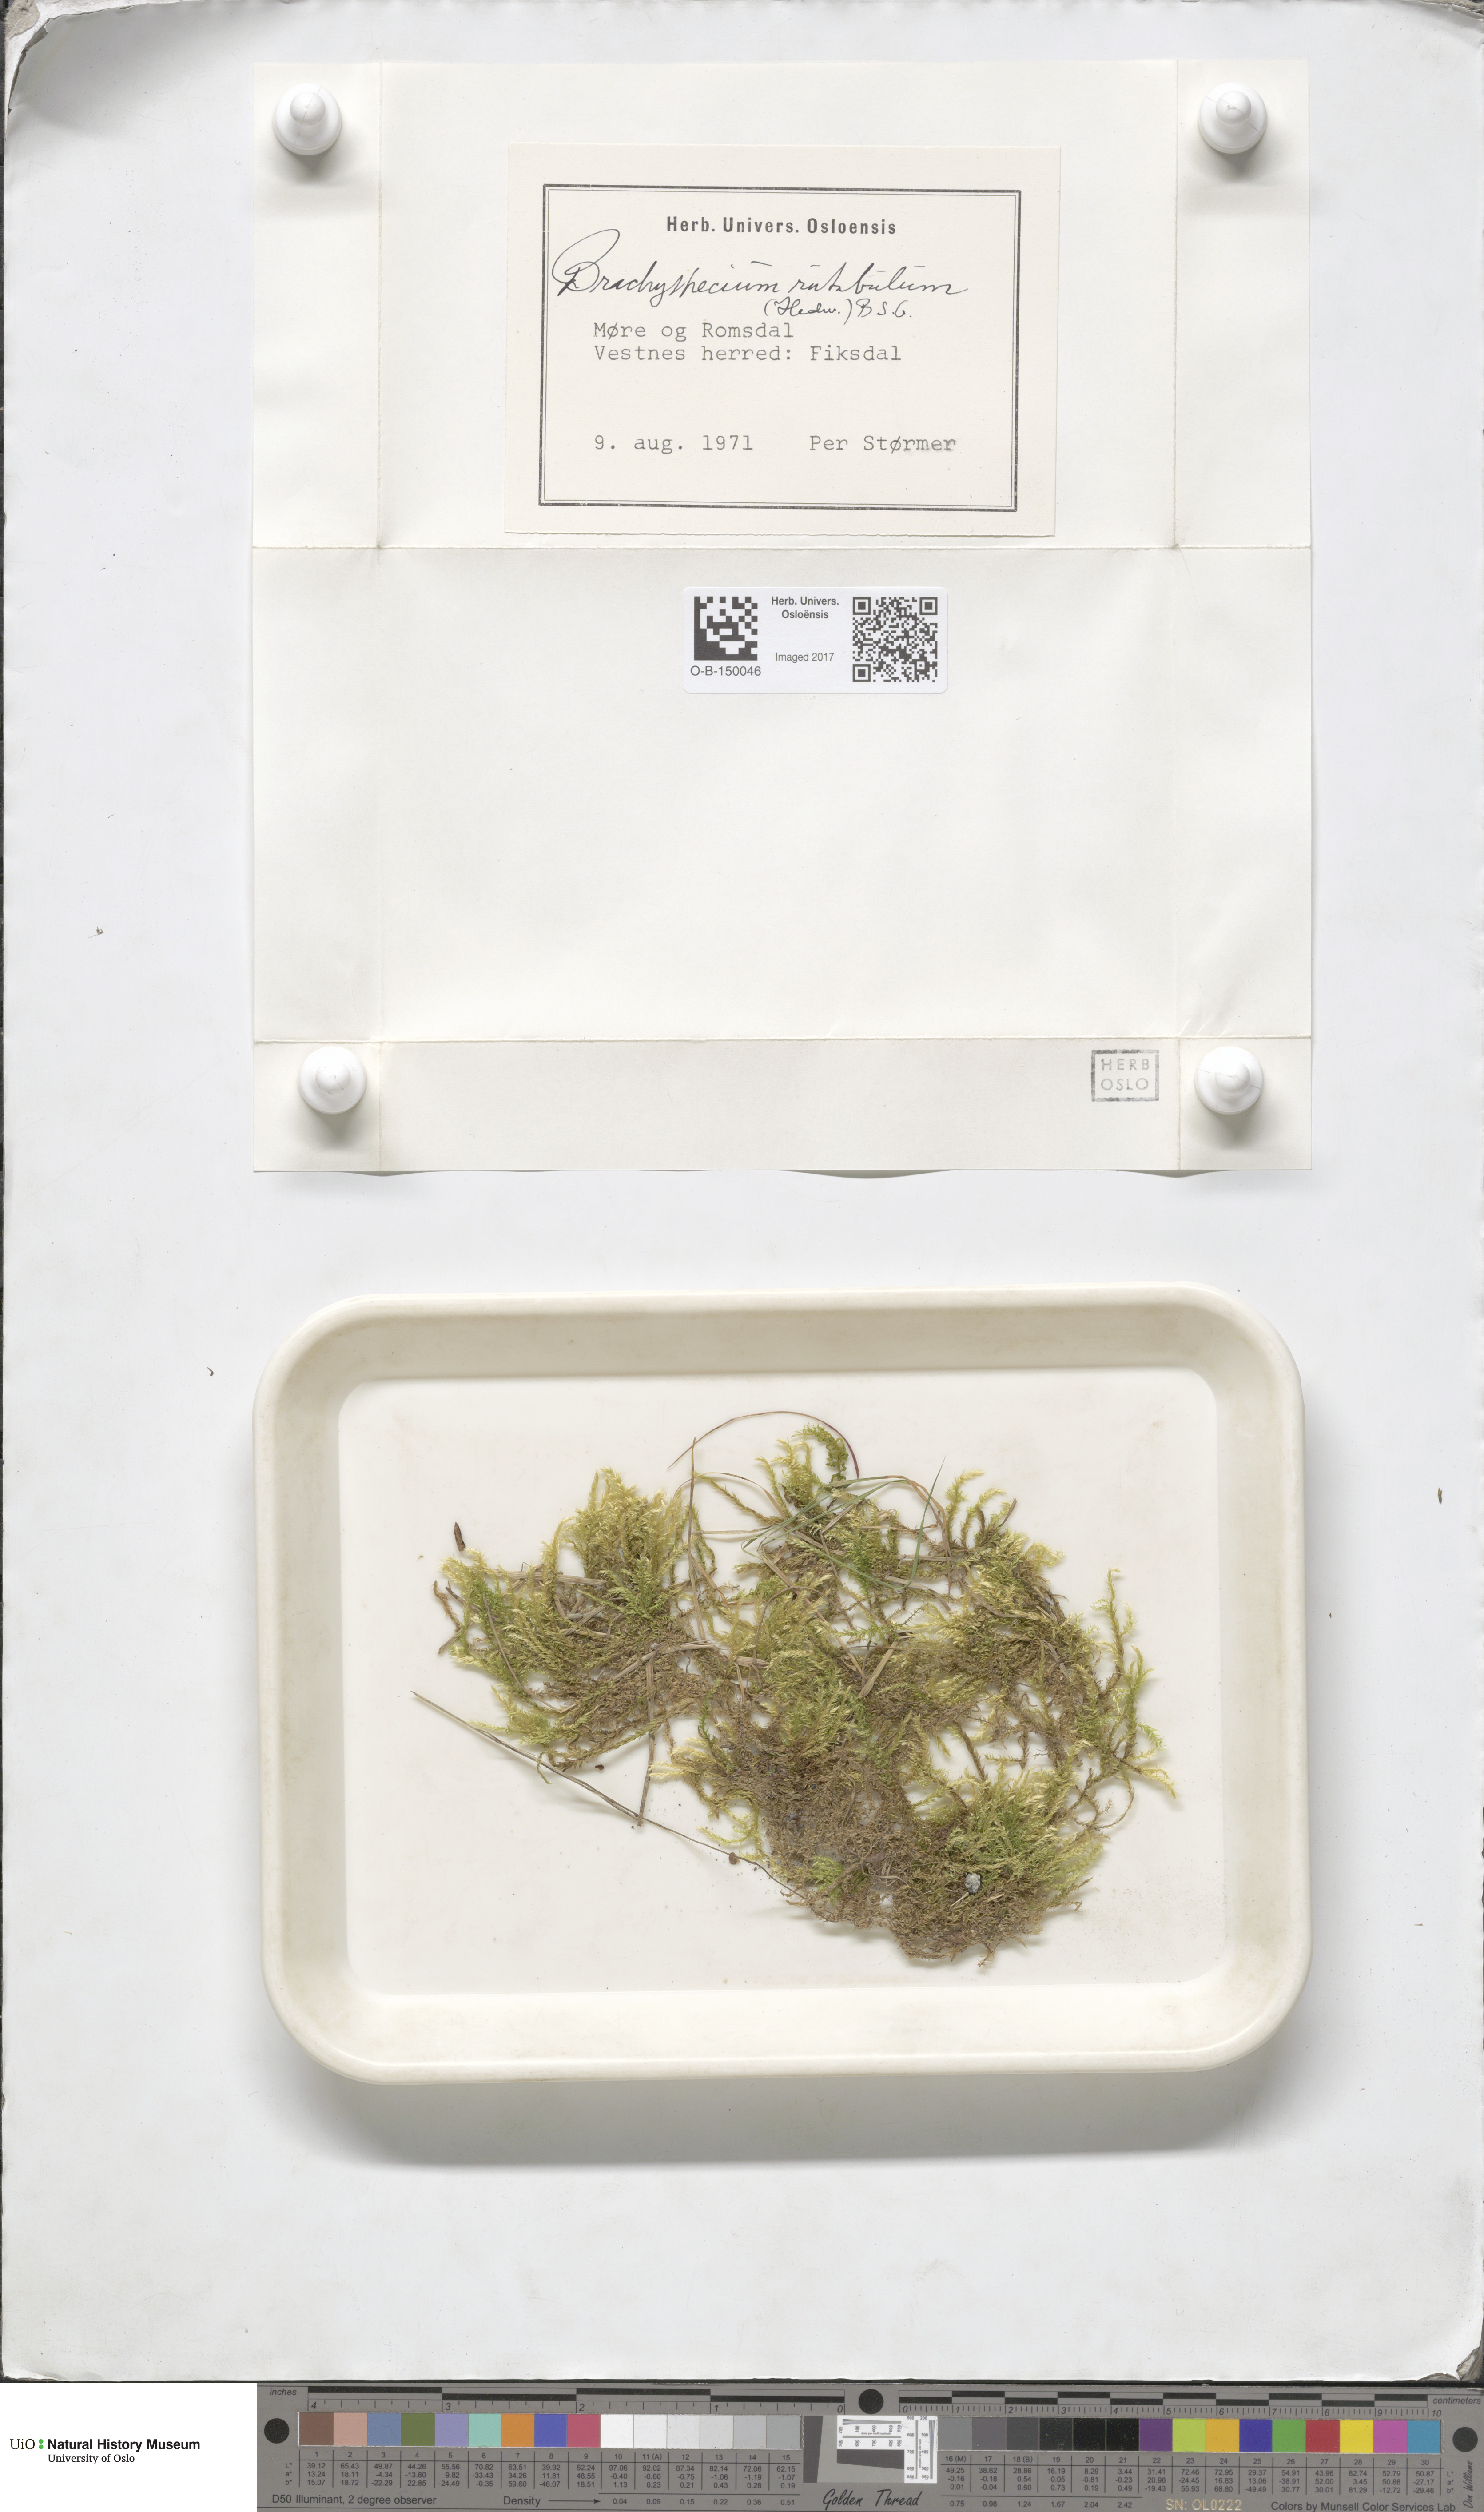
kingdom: Plantae
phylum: Bryophyta
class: Bryopsida
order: Hypnales
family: Brachytheciaceae
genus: Brachythecium
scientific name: Brachythecium rutabulum
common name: Rough-stalked feather-moss
